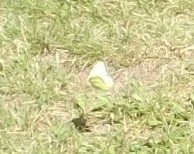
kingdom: Animalia
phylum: Arthropoda
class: Insecta
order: Lepidoptera
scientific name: Lepidoptera
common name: Butterflies
